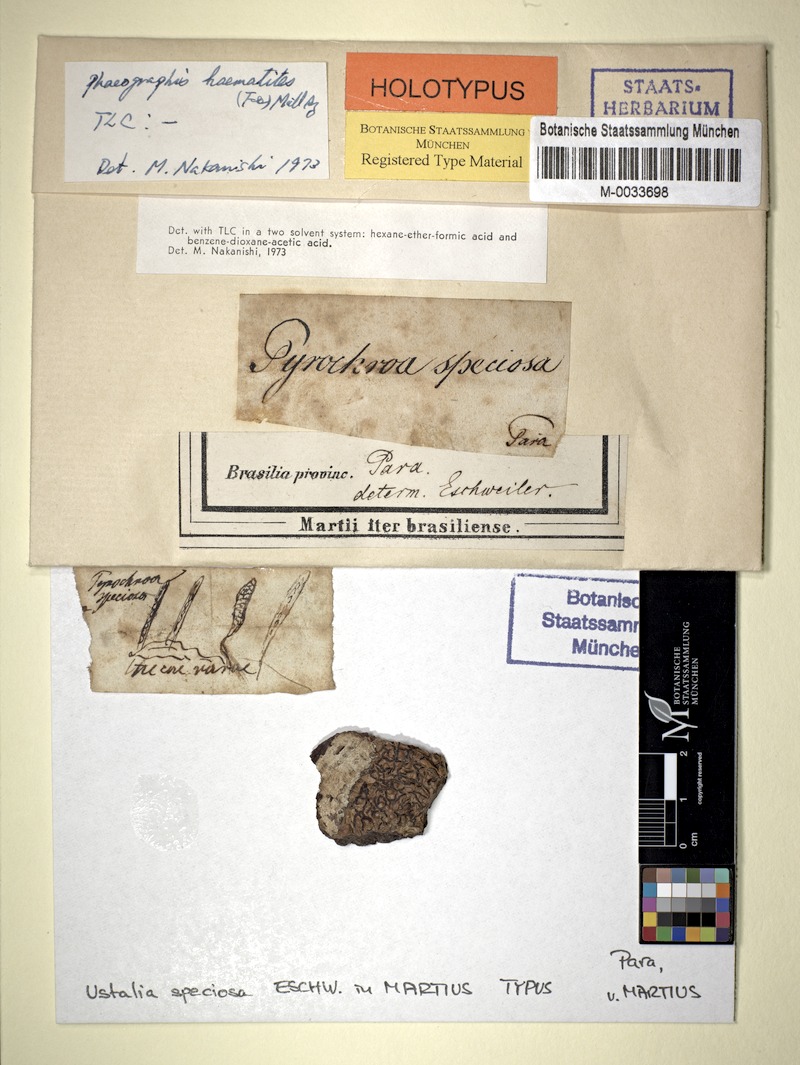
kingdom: Fungi
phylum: Ascomycota
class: Lecanoromycetes
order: Ostropales
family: Graphidaceae
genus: Phaeographis
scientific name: Phaeographis haematites
